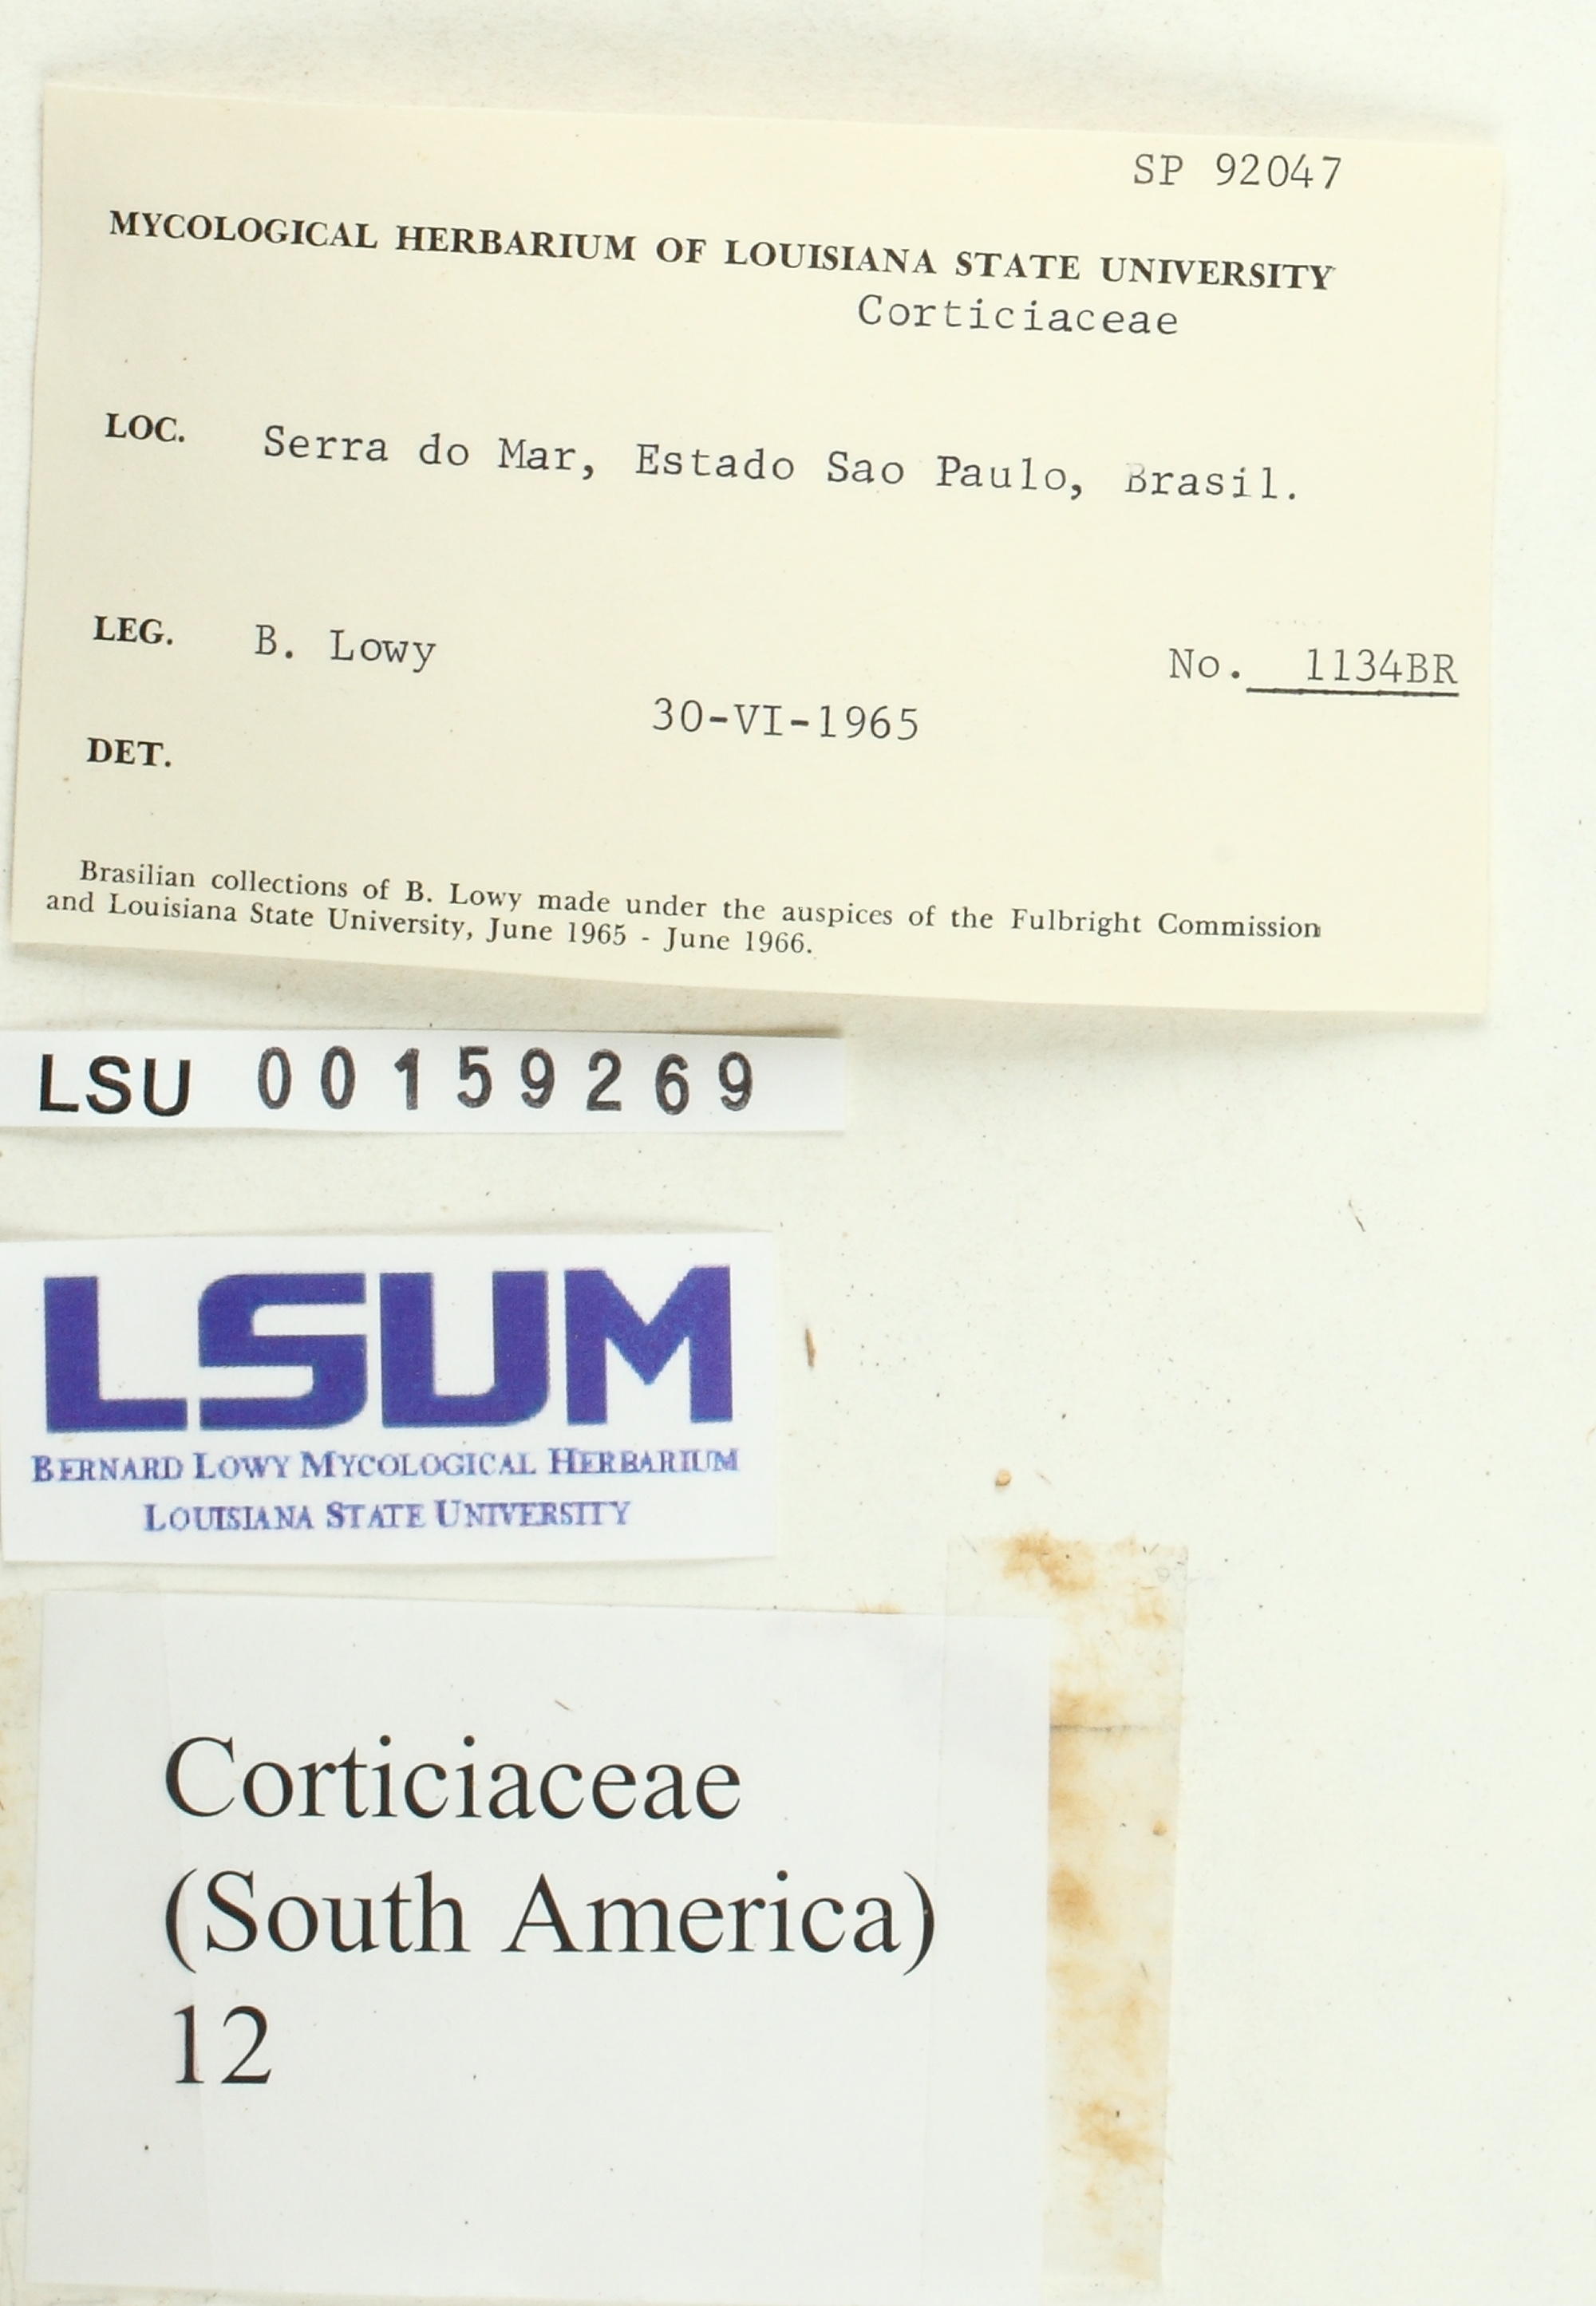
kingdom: Fungi
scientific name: Fungi
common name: Fungi
